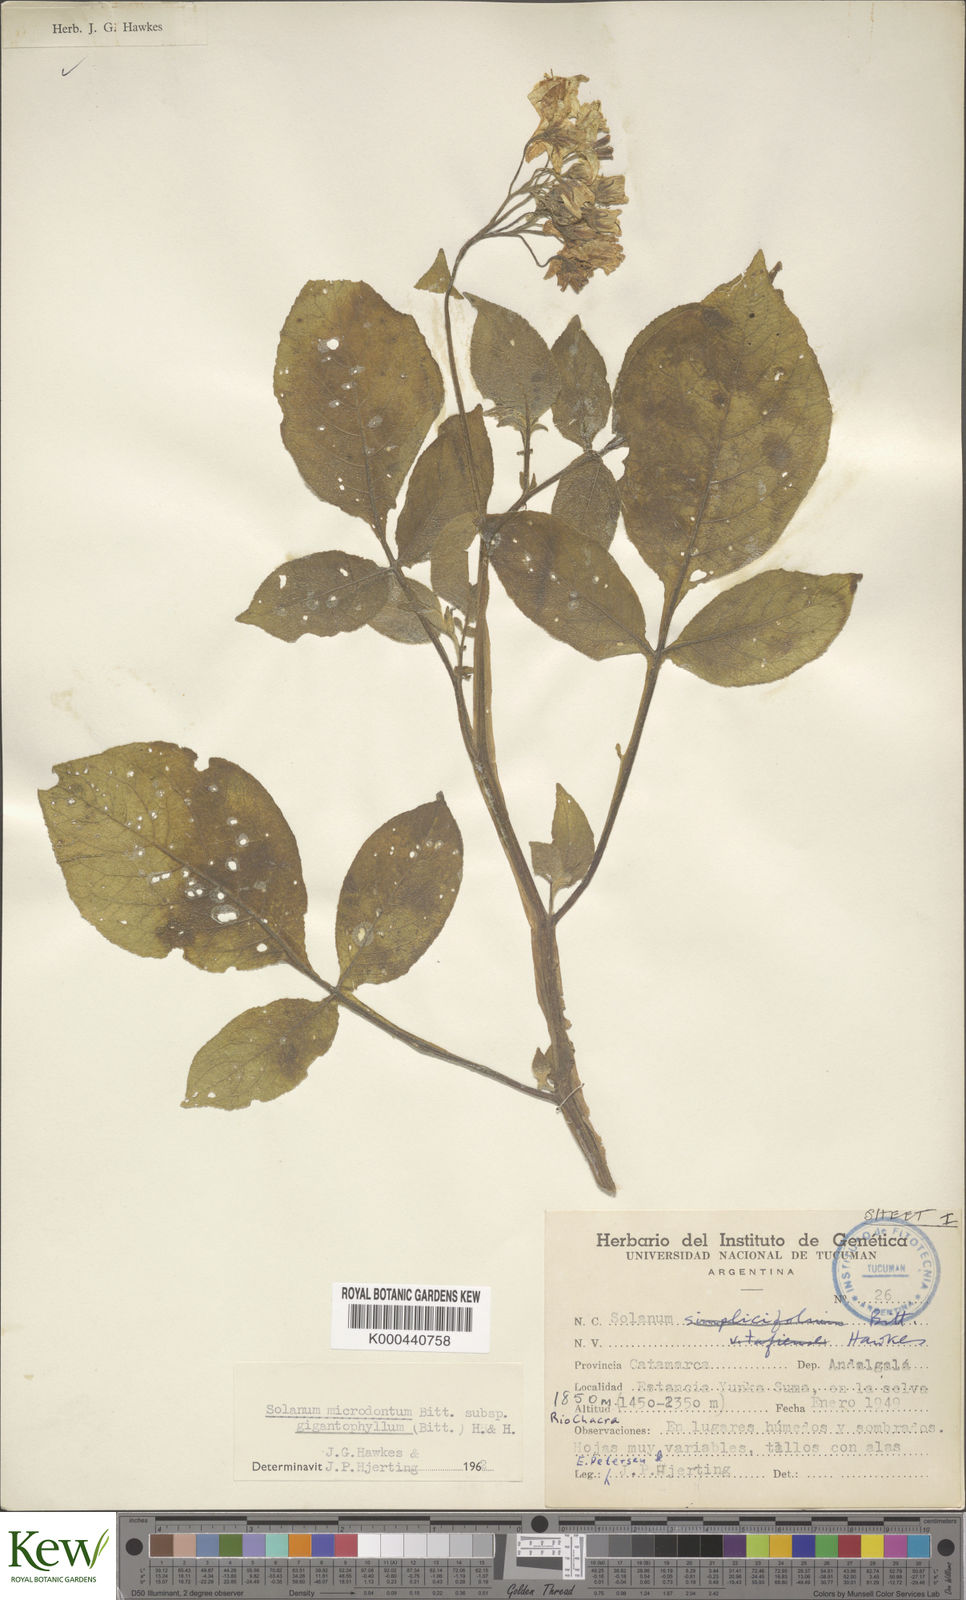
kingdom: Plantae
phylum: Tracheophyta
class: Magnoliopsida
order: Solanales
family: Solanaceae
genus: Solanum
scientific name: Solanum microdontum
